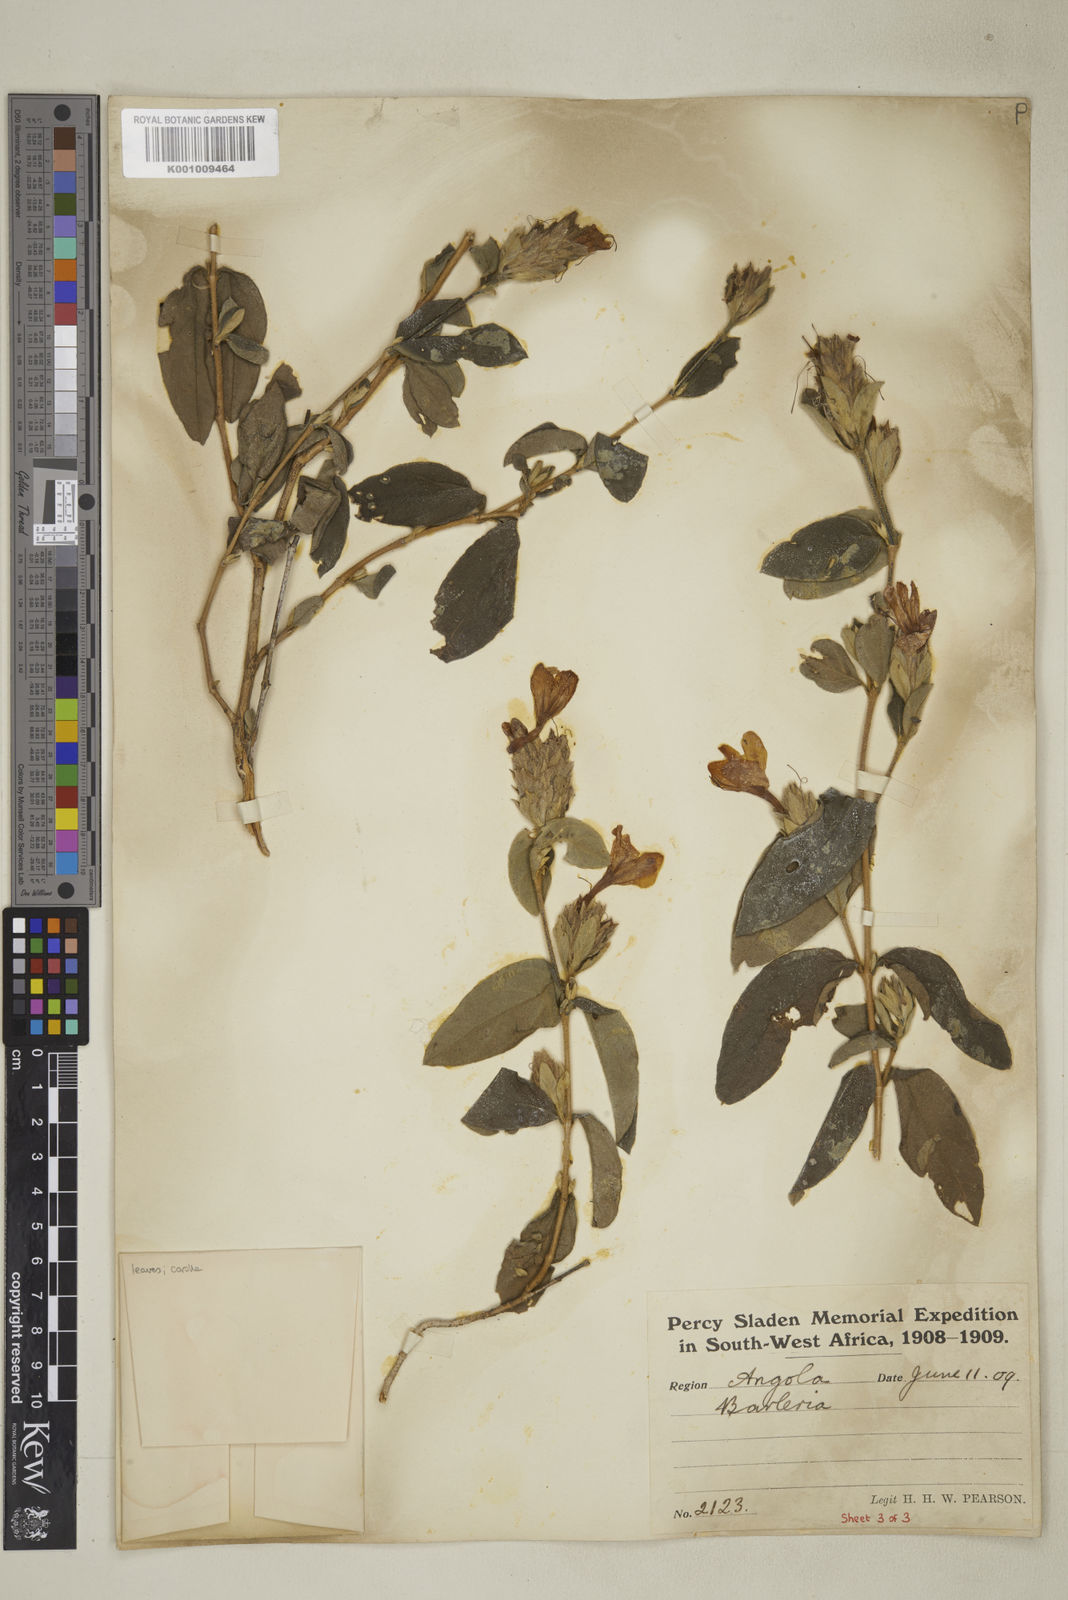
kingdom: Plantae
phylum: Tracheophyta
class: Magnoliopsida
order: Lamiales
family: Acanthaceae
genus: Barleria
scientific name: Barleria taitensis
